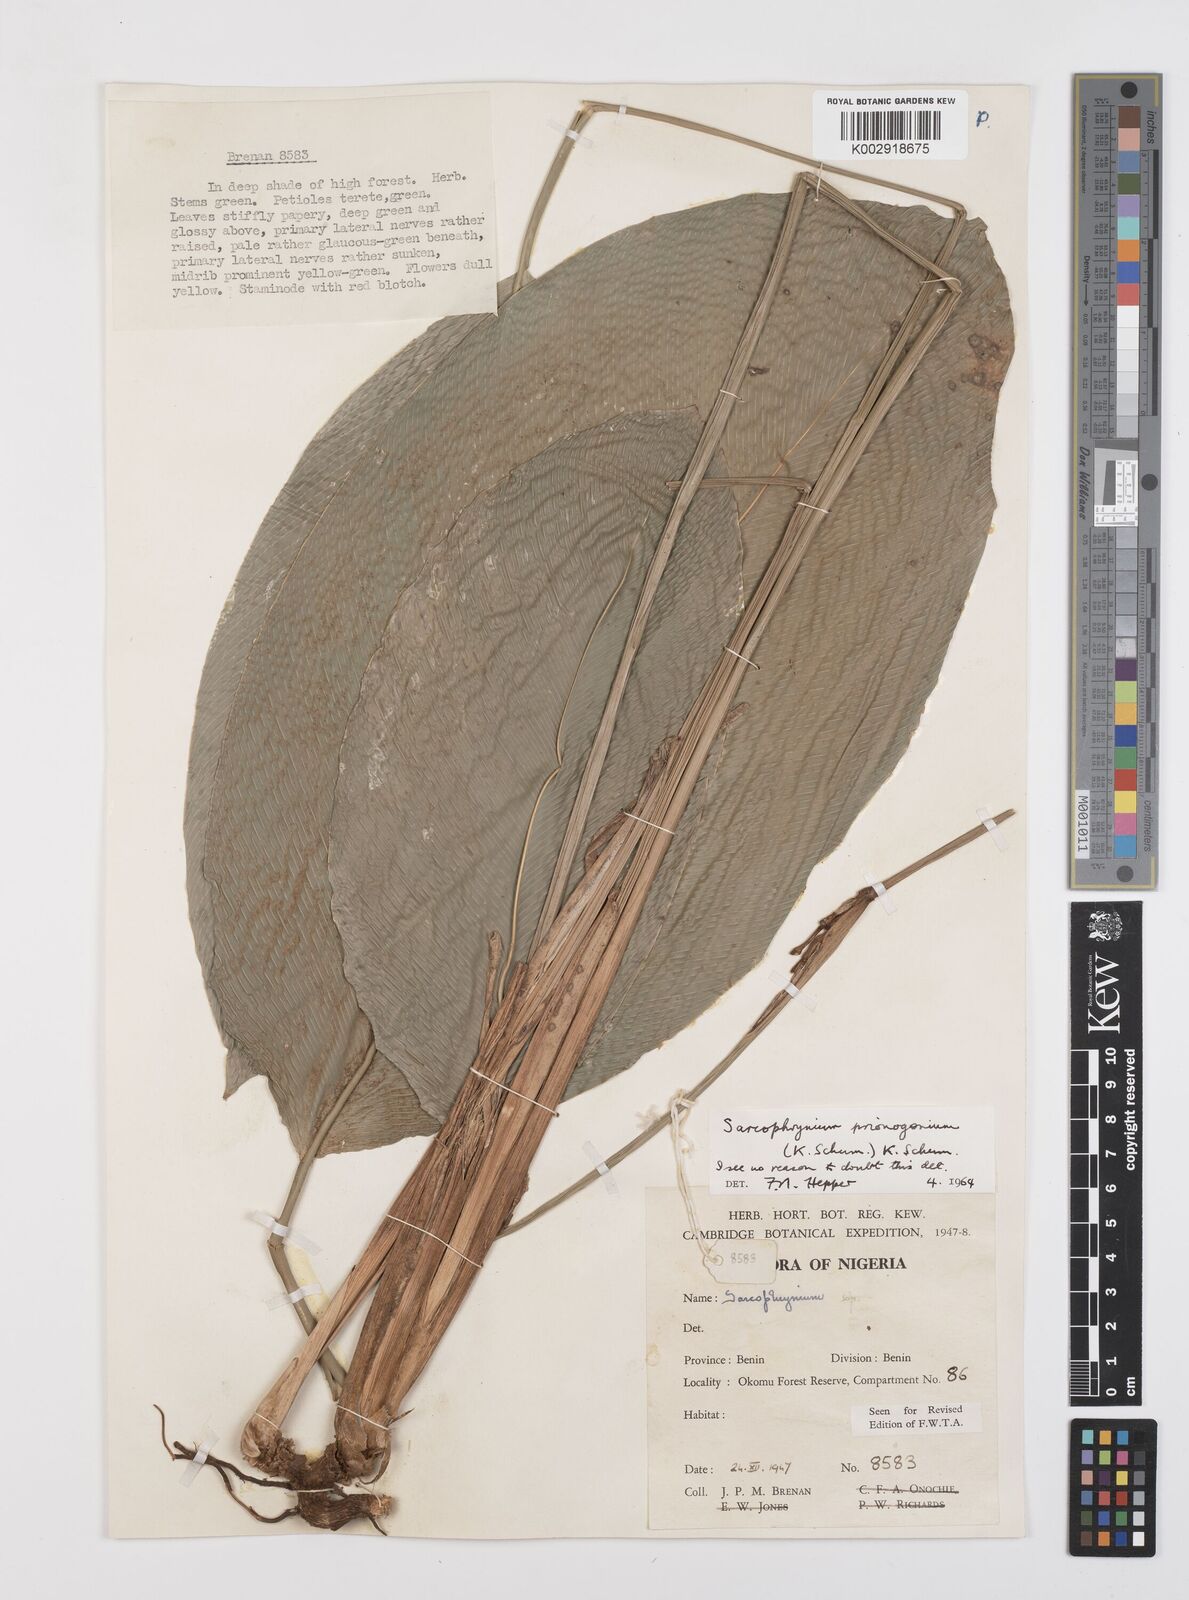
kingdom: Plantae
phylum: Tracheophyta
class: Liliopsida
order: Zingiberales
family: Marantaceae
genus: Sarcophrynium
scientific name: Sarcophrynium prionogonium
